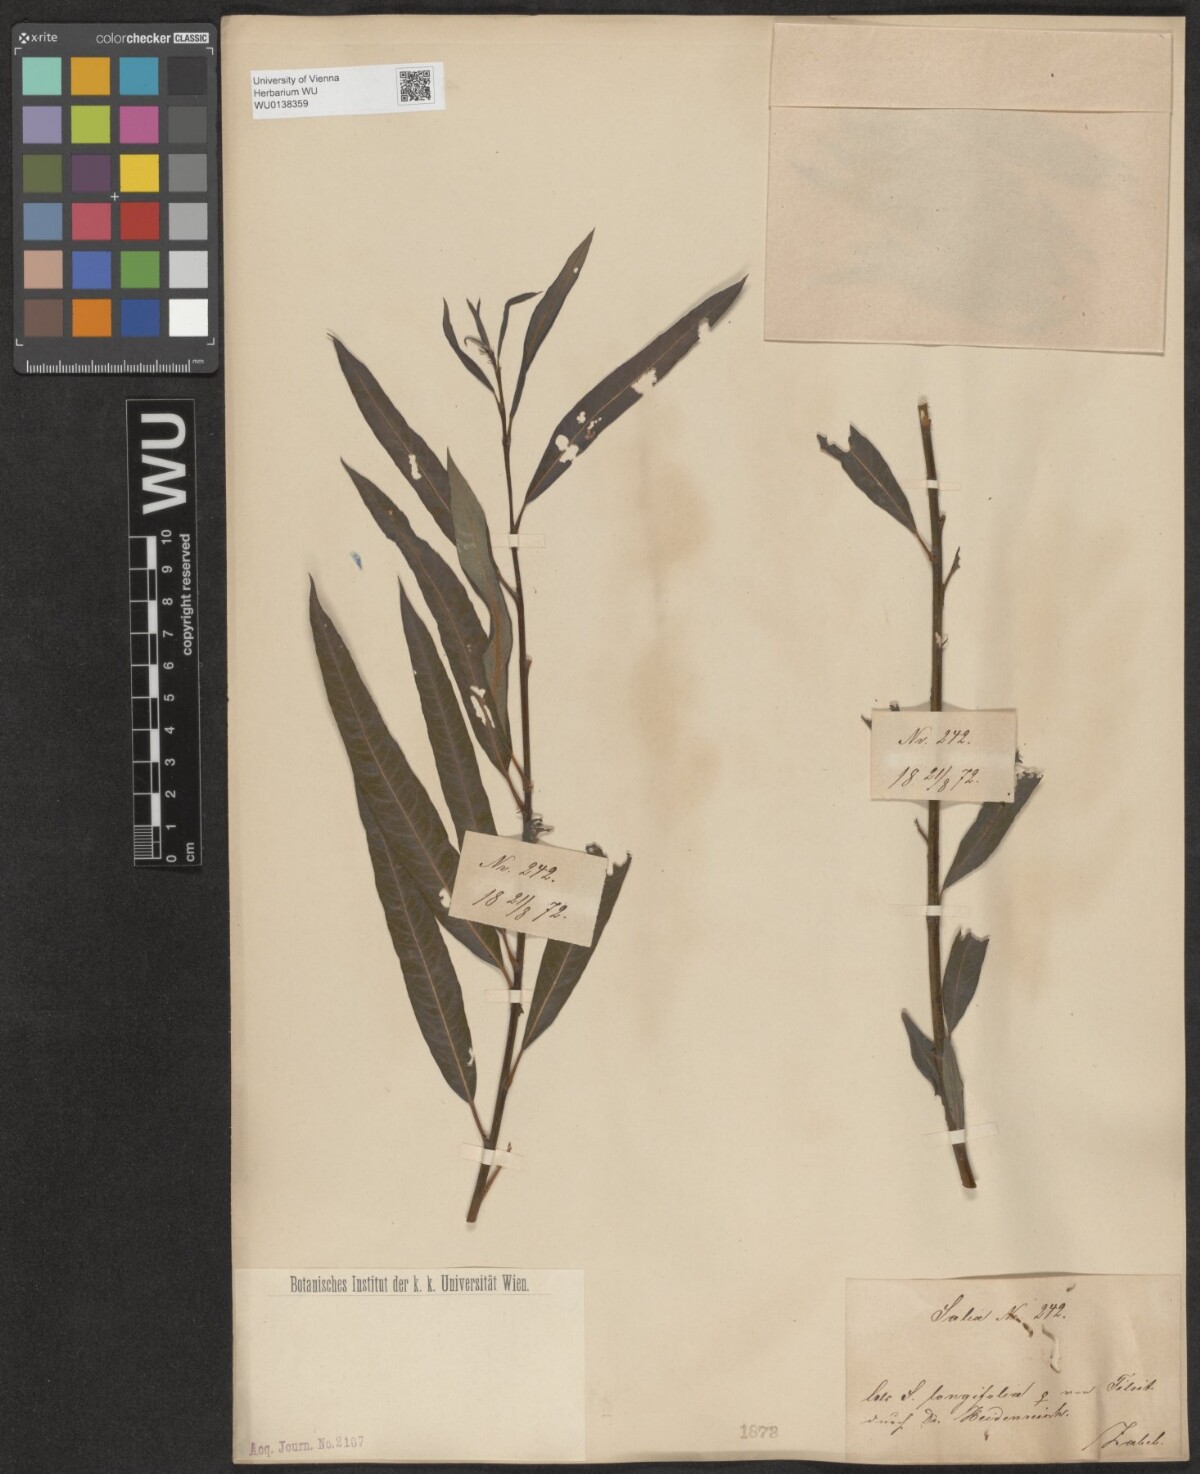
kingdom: Plantae
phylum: Tracheophyta
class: Magnoliopsida
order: Malpighiales
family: Salicaceae
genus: Salix
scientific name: Salix interior
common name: Sandbar willow
